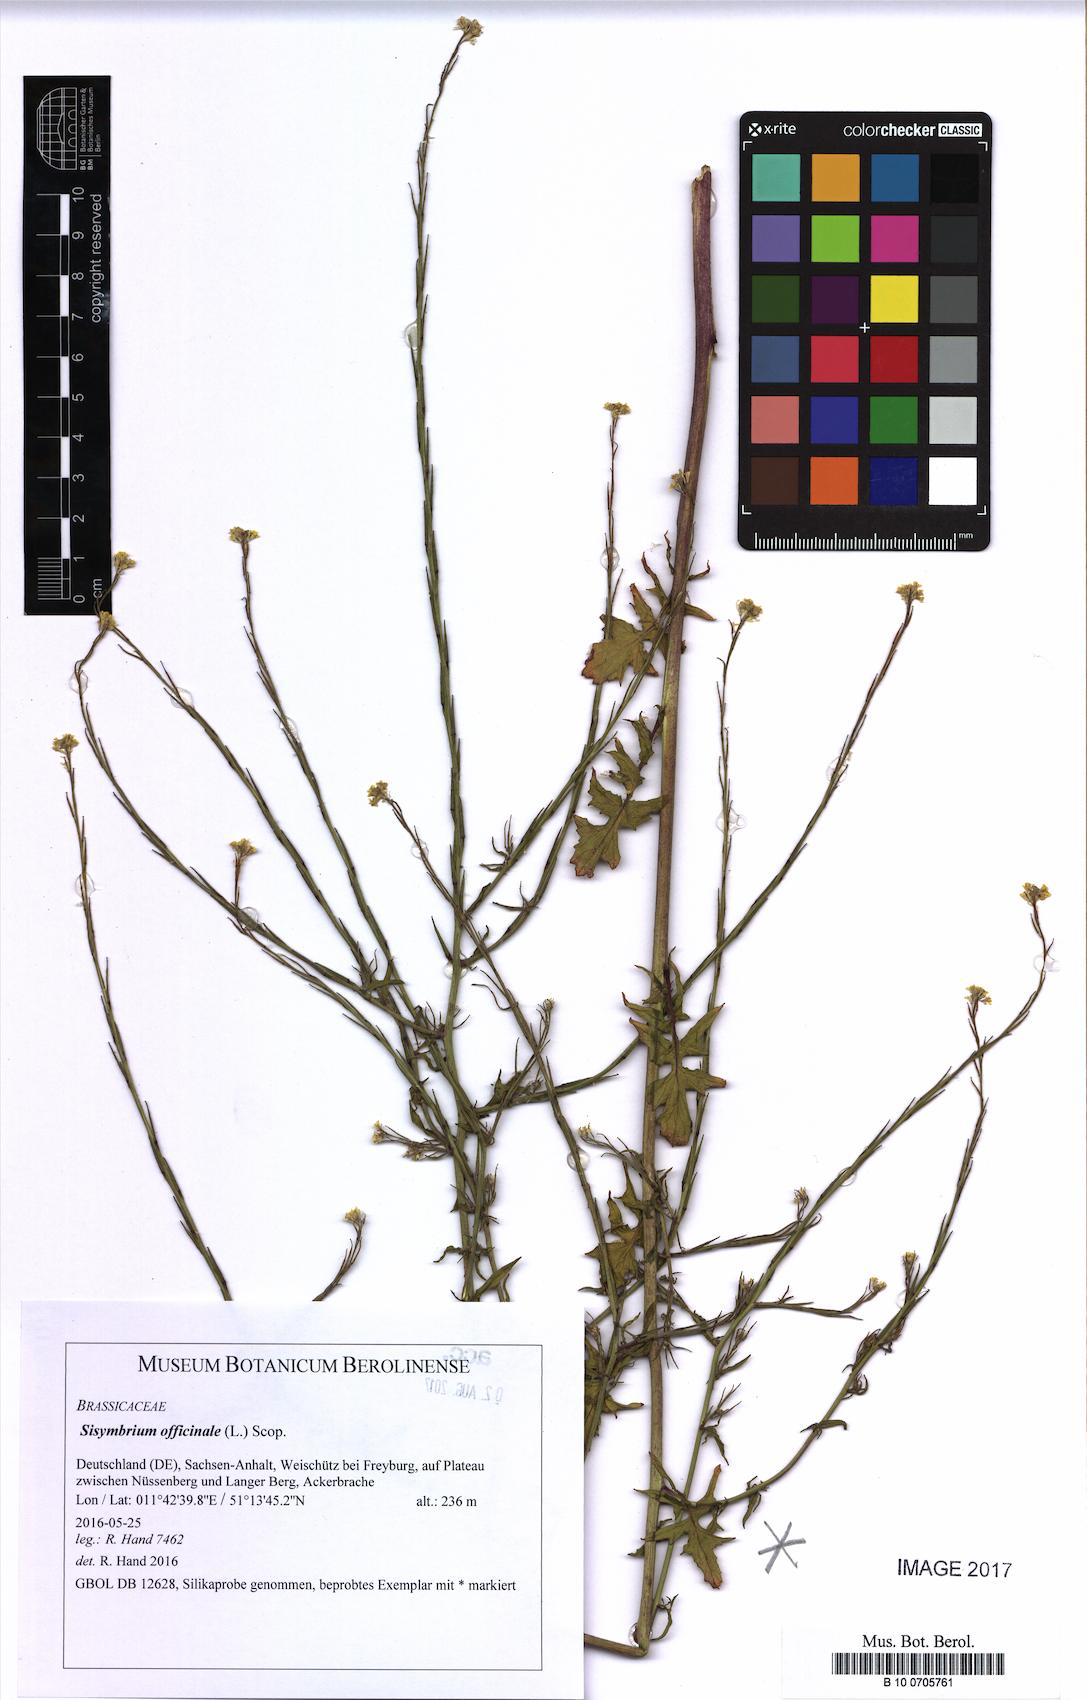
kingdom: Plantae
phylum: Tracheophyta
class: Magnoliopsida
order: Brassicales
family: Brassicaceae
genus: Sisymbrium
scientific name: Sisymbrium officinale
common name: Hedge mustard
